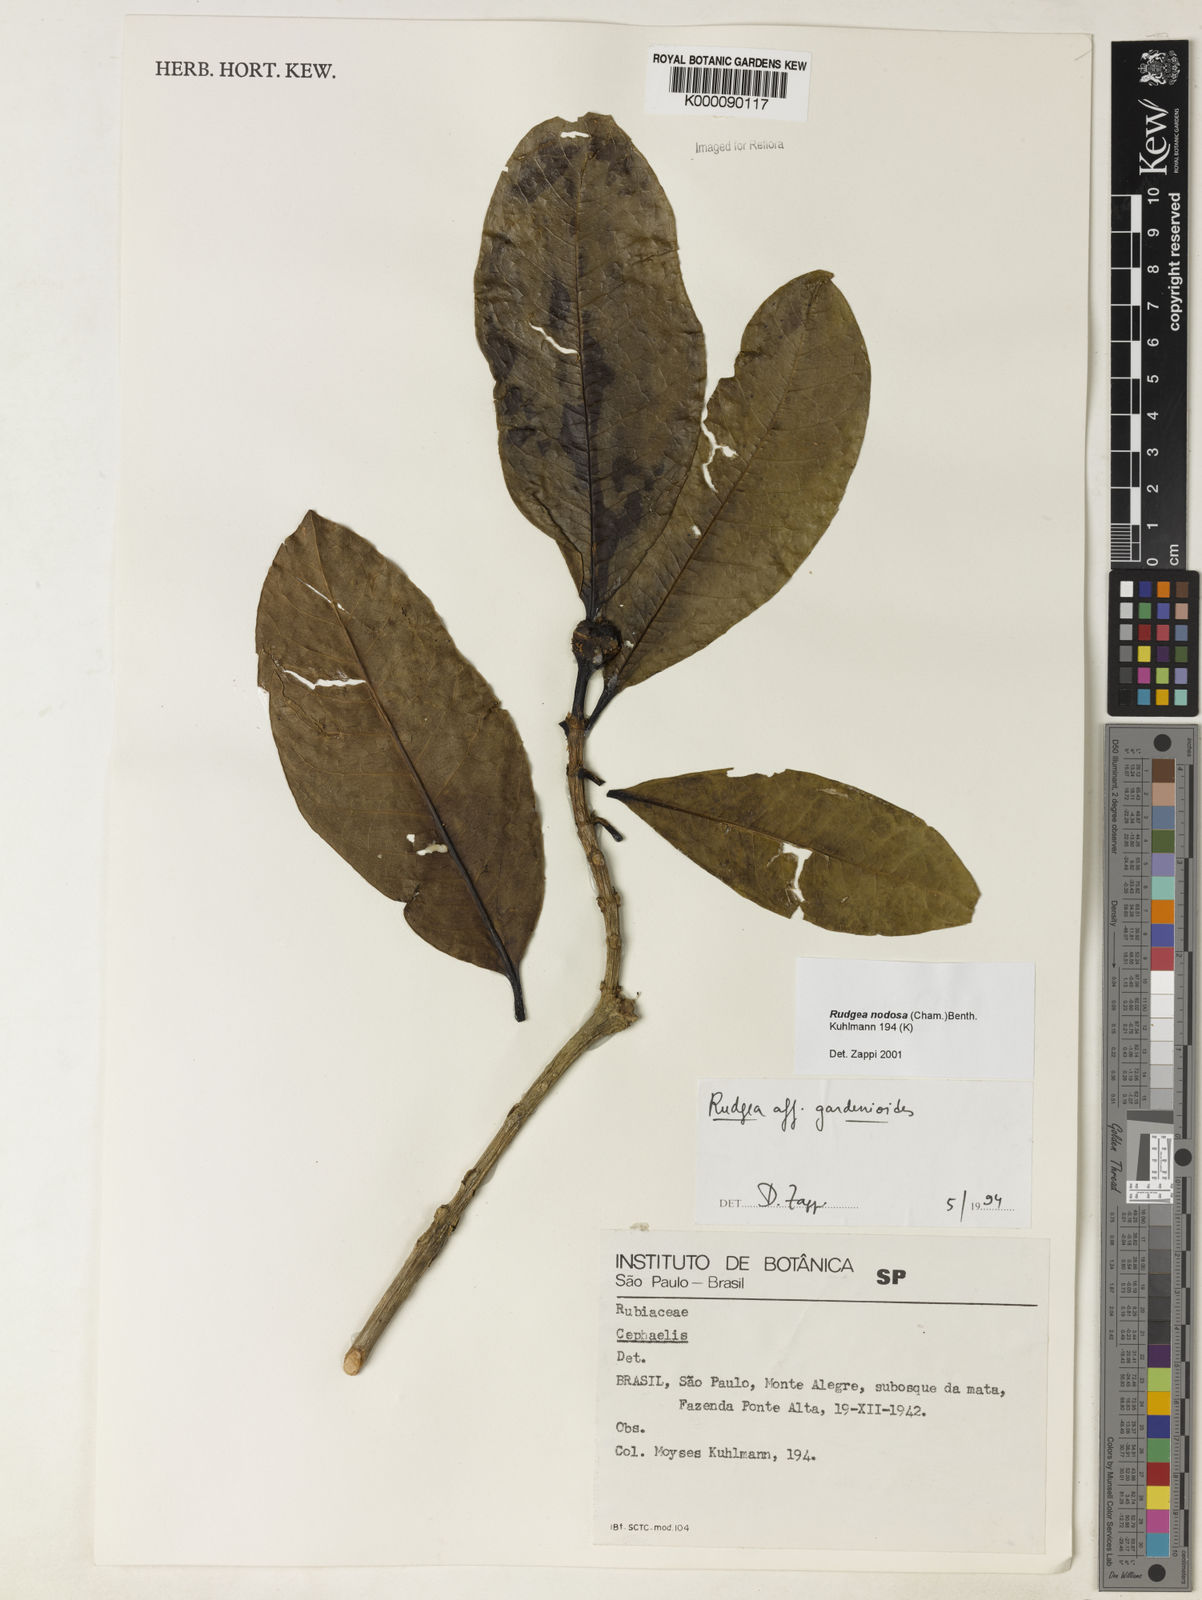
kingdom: Plantae
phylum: Tracheophyta
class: Magnoliopsida
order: Gentianales
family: Rubiaceae
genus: Rudgea
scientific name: Rudgea nodosa
